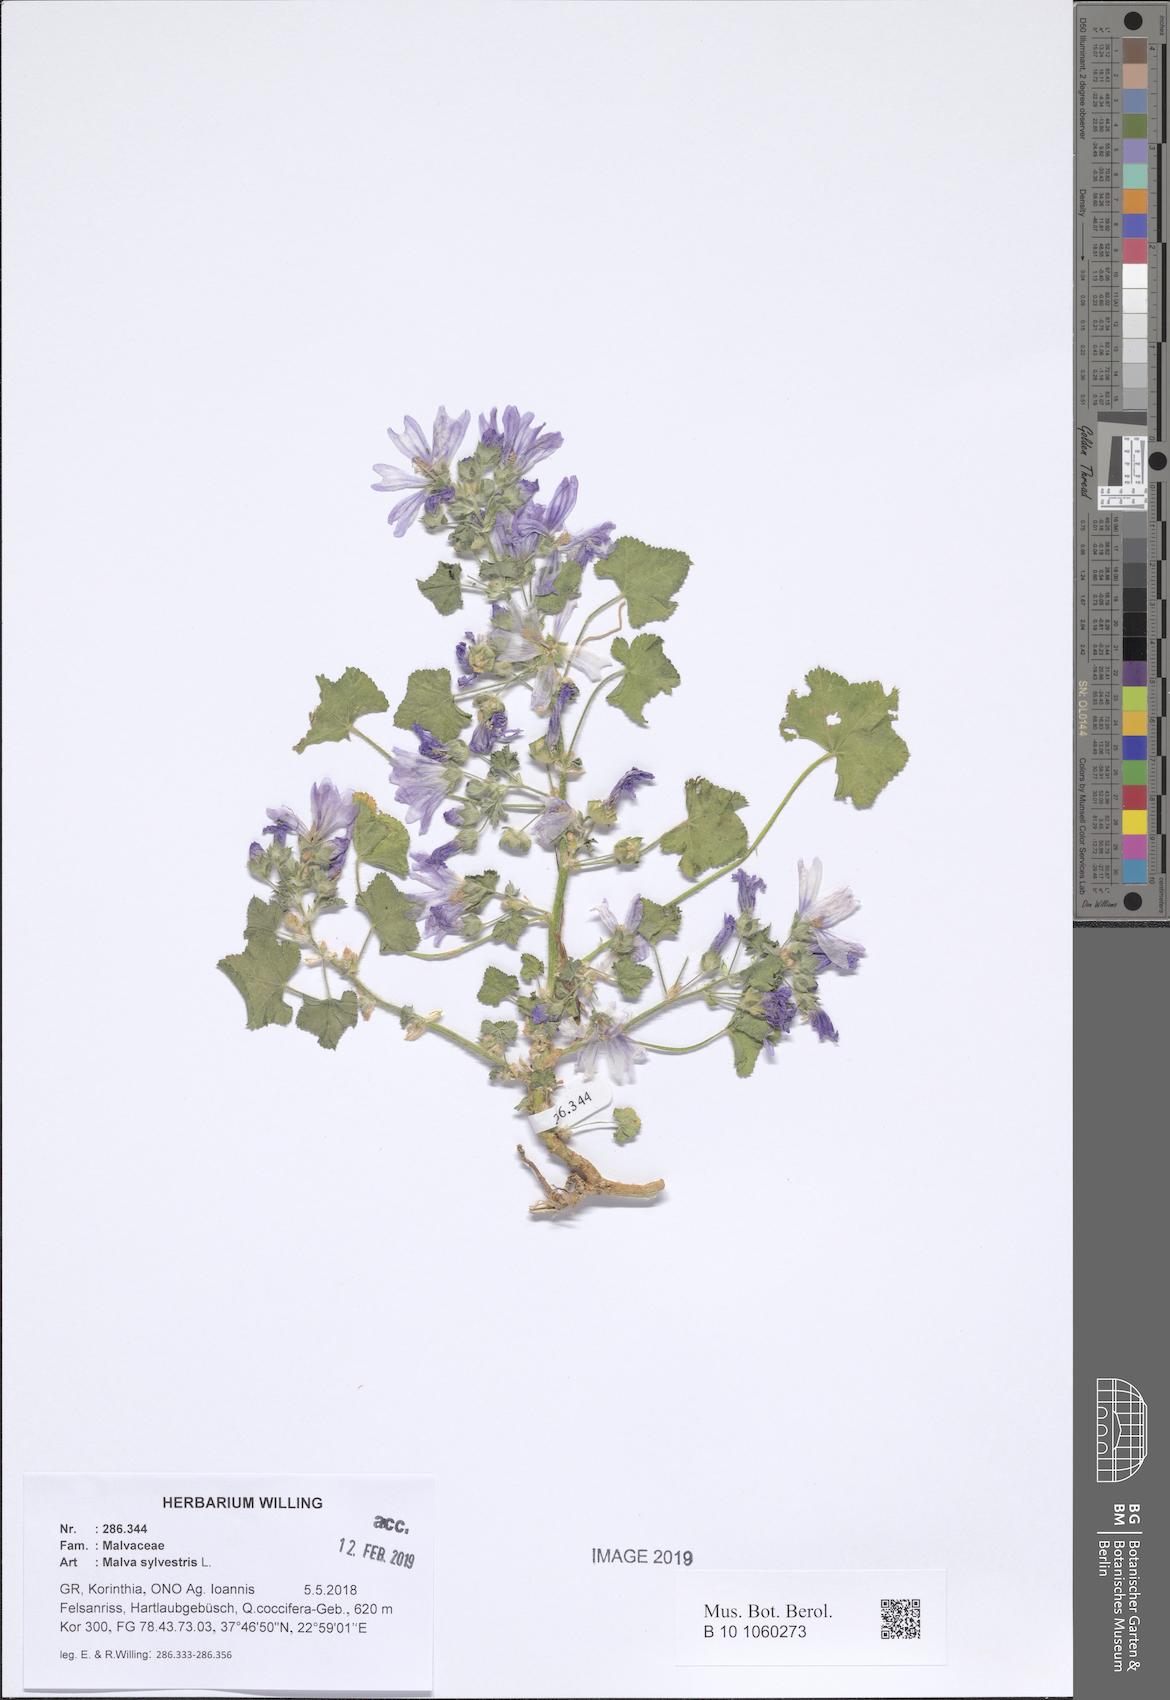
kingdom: Plantae
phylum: Tracheophyta
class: Magnoliopsida
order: Malvales
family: Malvaceae
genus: Malva
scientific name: Malva sylvestris
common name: Common mallow
